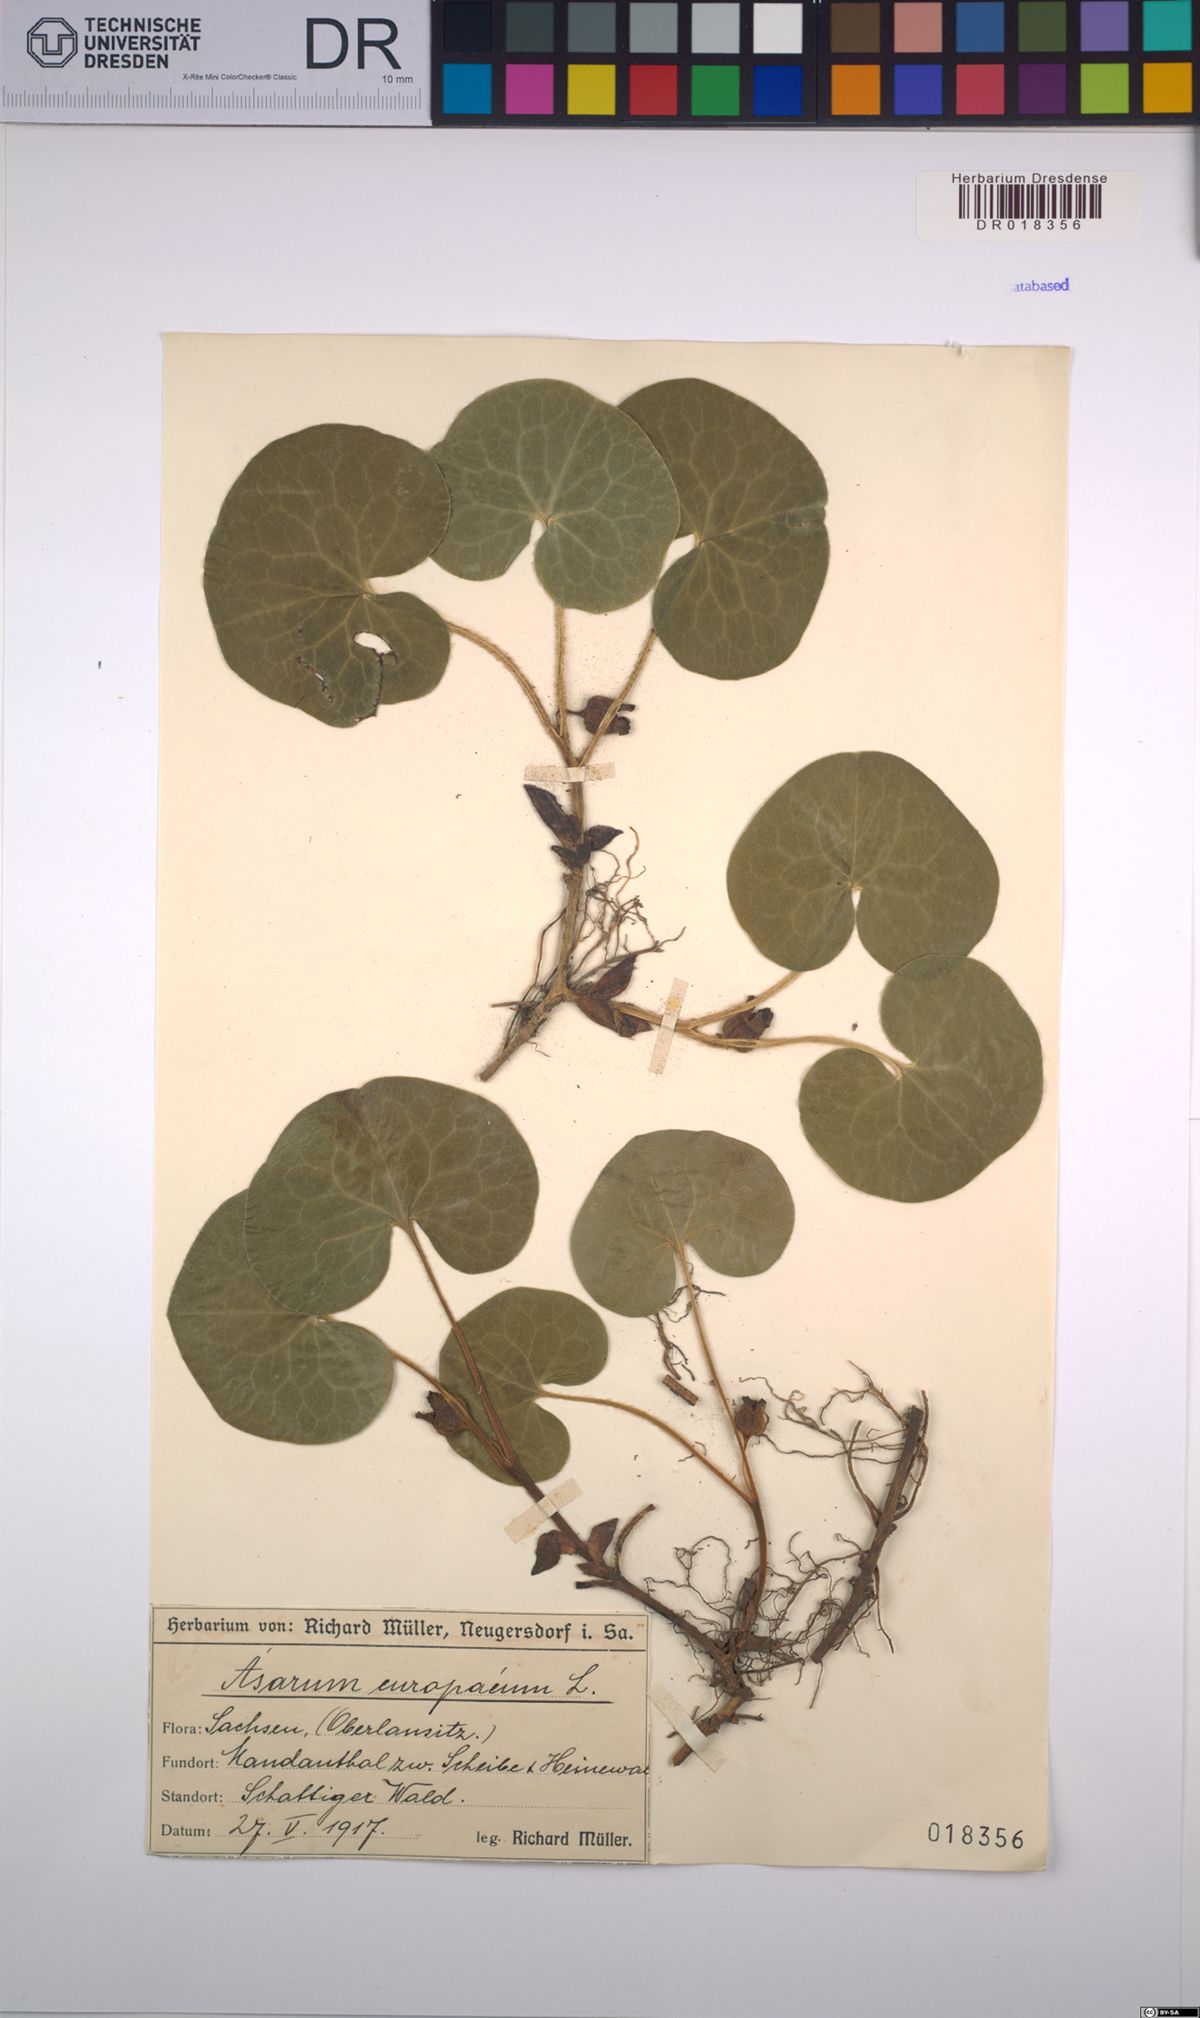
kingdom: Plantae
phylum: Tracheophyta
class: Magnoliopsida
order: Piperales
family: Aristolochiaceae
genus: Asarum
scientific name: Asarum europaeum
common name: Asarabacca
